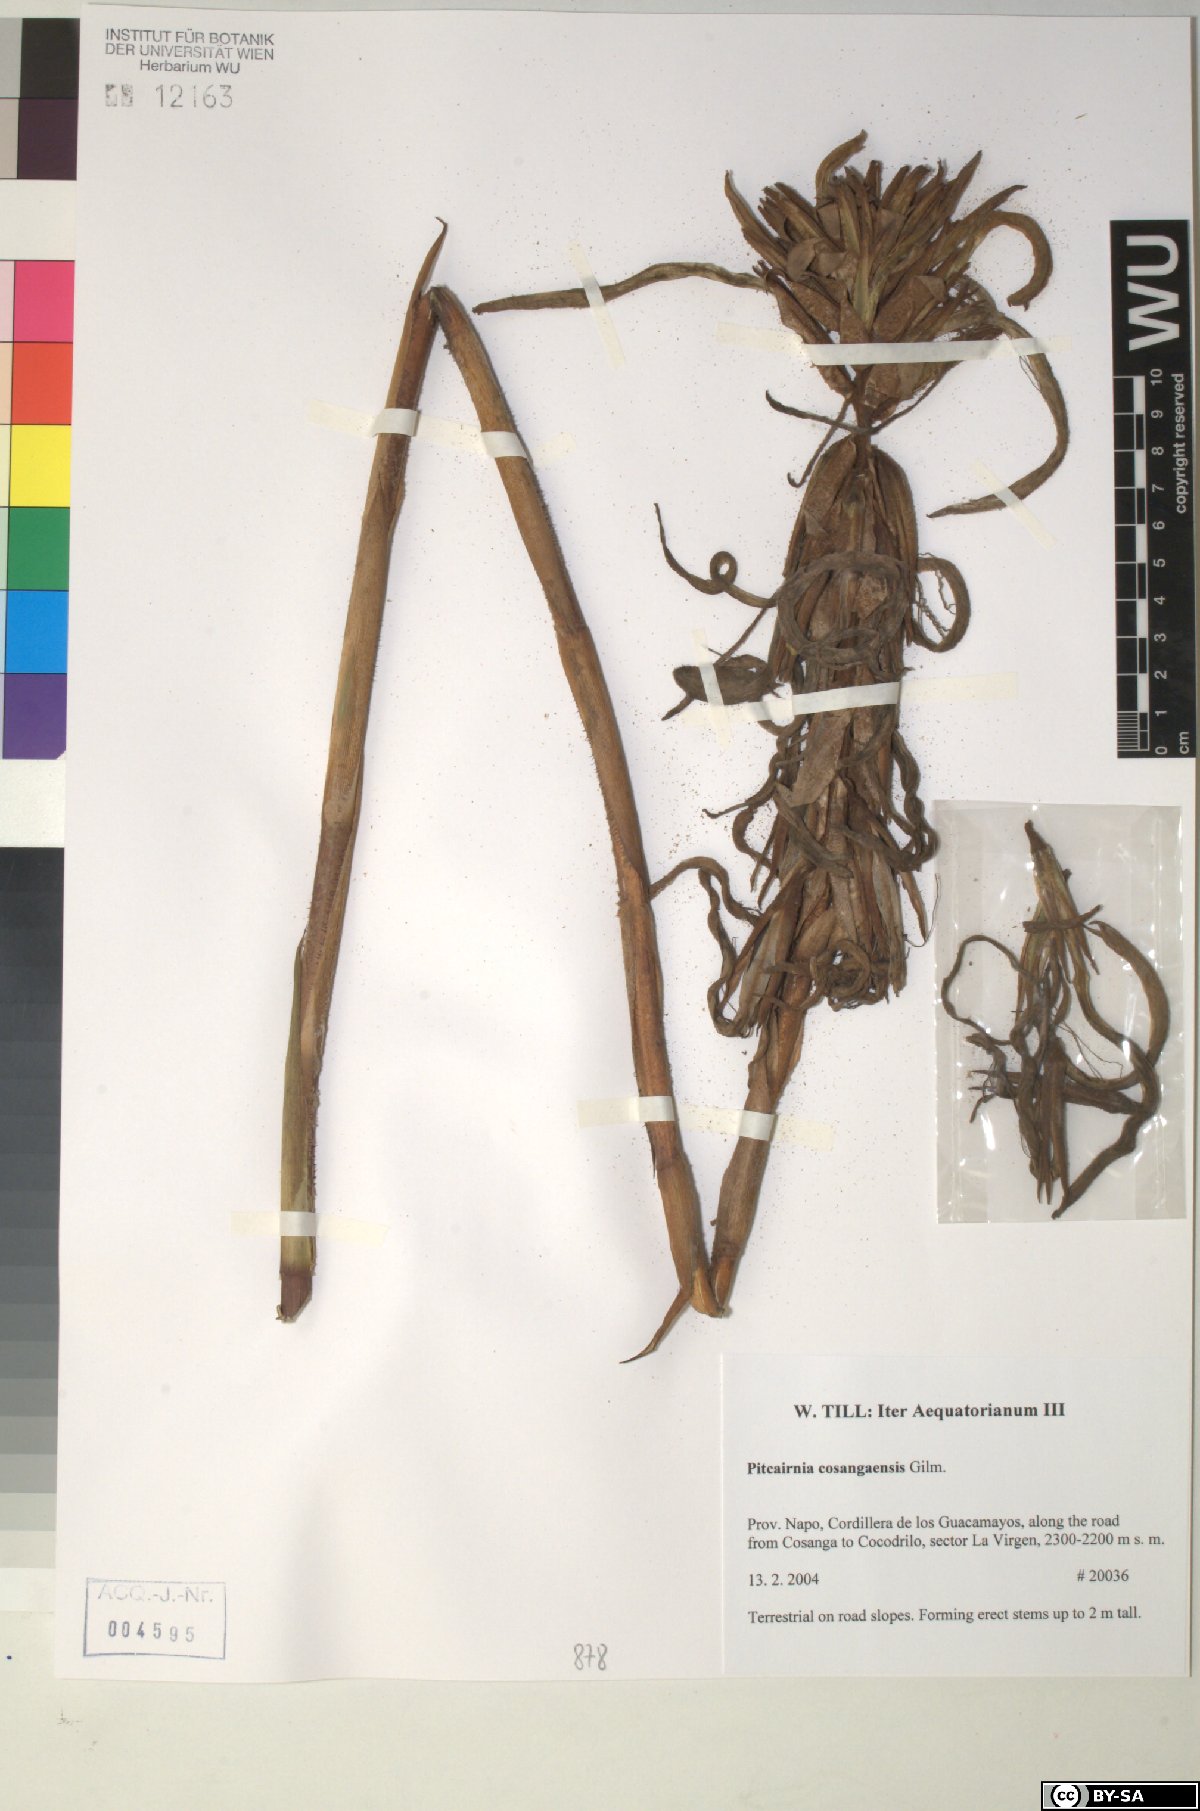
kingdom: Plantae
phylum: Tracheophyta
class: Liliopsida
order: Poales
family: Bromeliaceae
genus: Pitcairnia
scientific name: Pitcairnia cosangaensis
